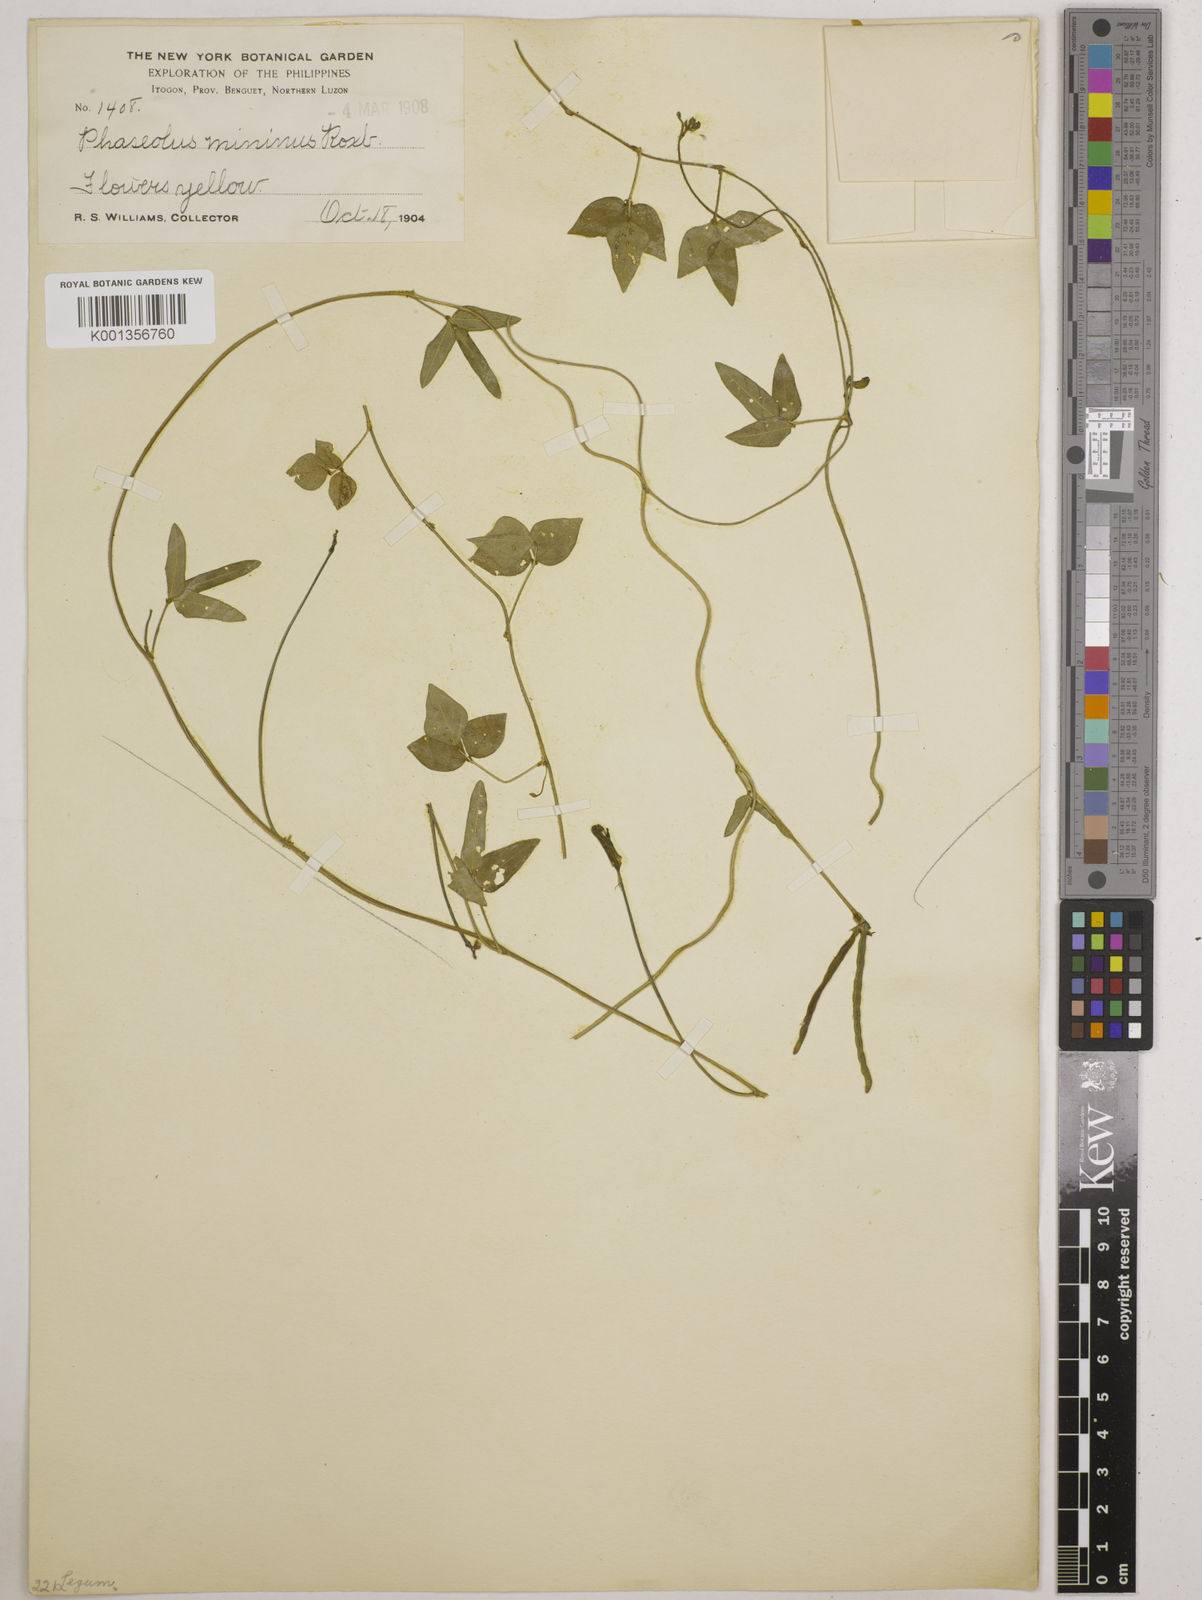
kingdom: Plantae
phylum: Tracheophyta
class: Magnoliopsida
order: Fabales
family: Fabaceae
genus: Vigna
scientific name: Vigna minima
